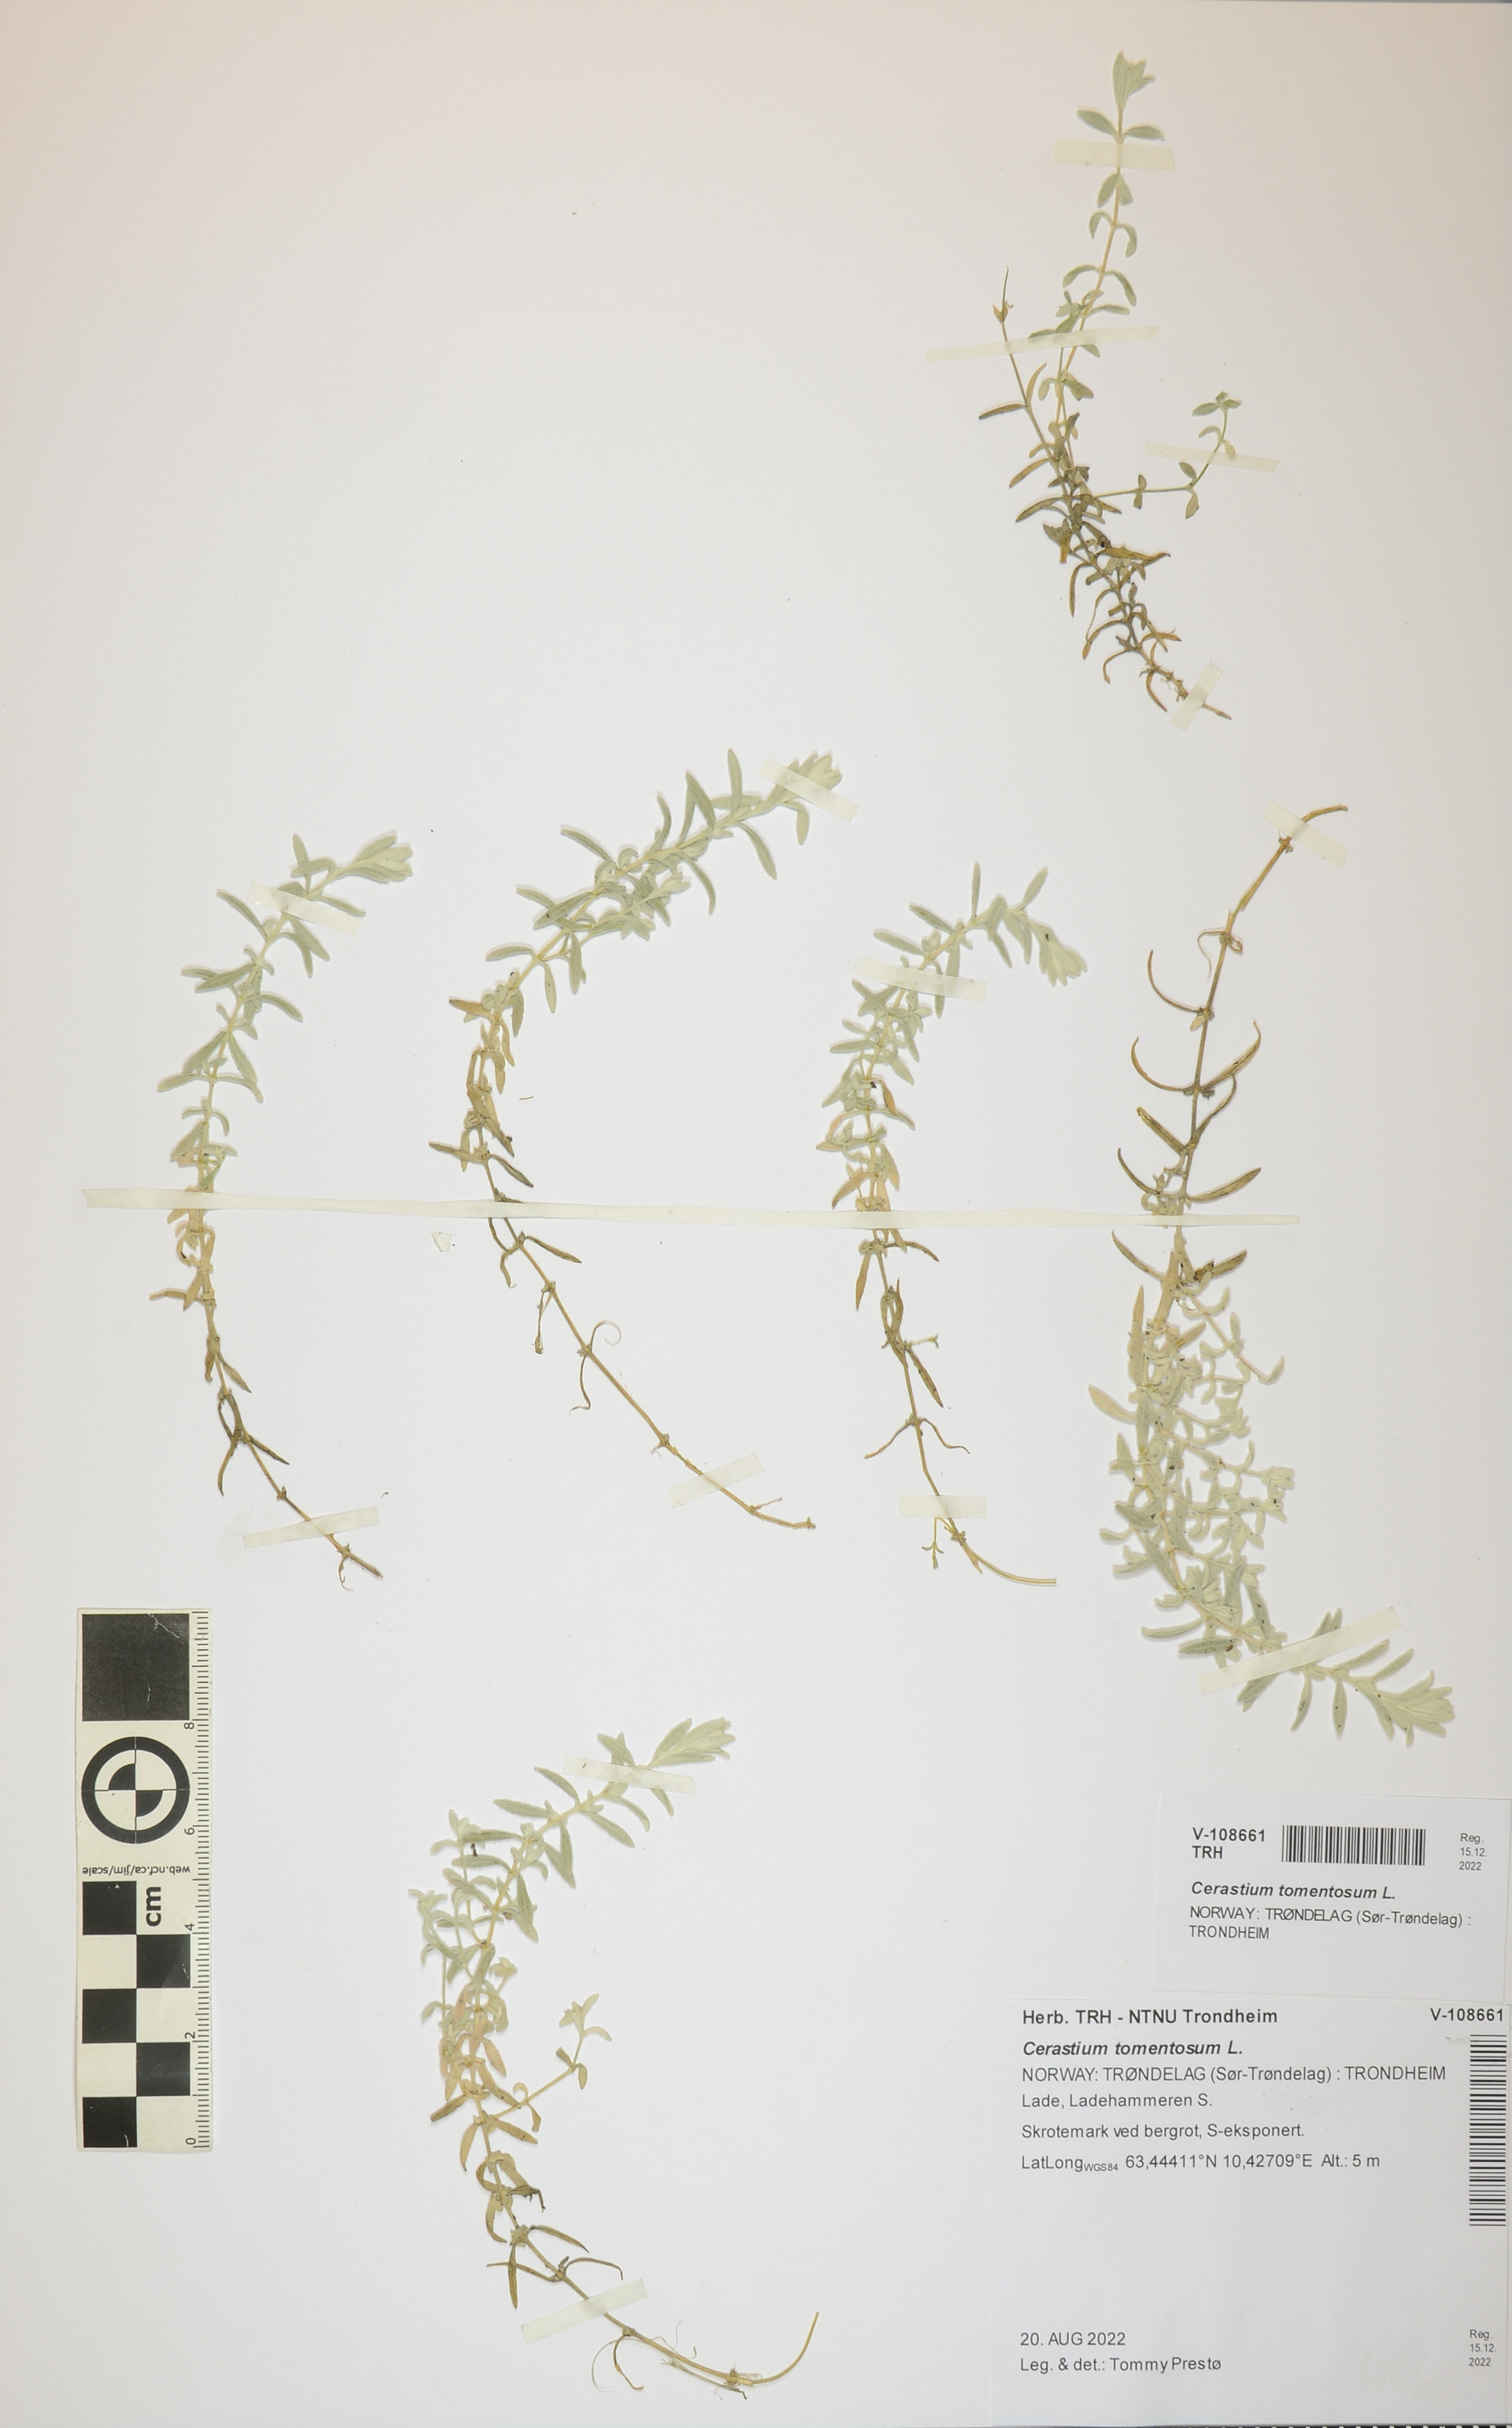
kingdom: Plantae
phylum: Tracheophyta
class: Magnoliopsida
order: Caryophyllales
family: Caryophyllaceae
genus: Cerastium
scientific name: Cerastium tomentosum
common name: Snow-in-summer
